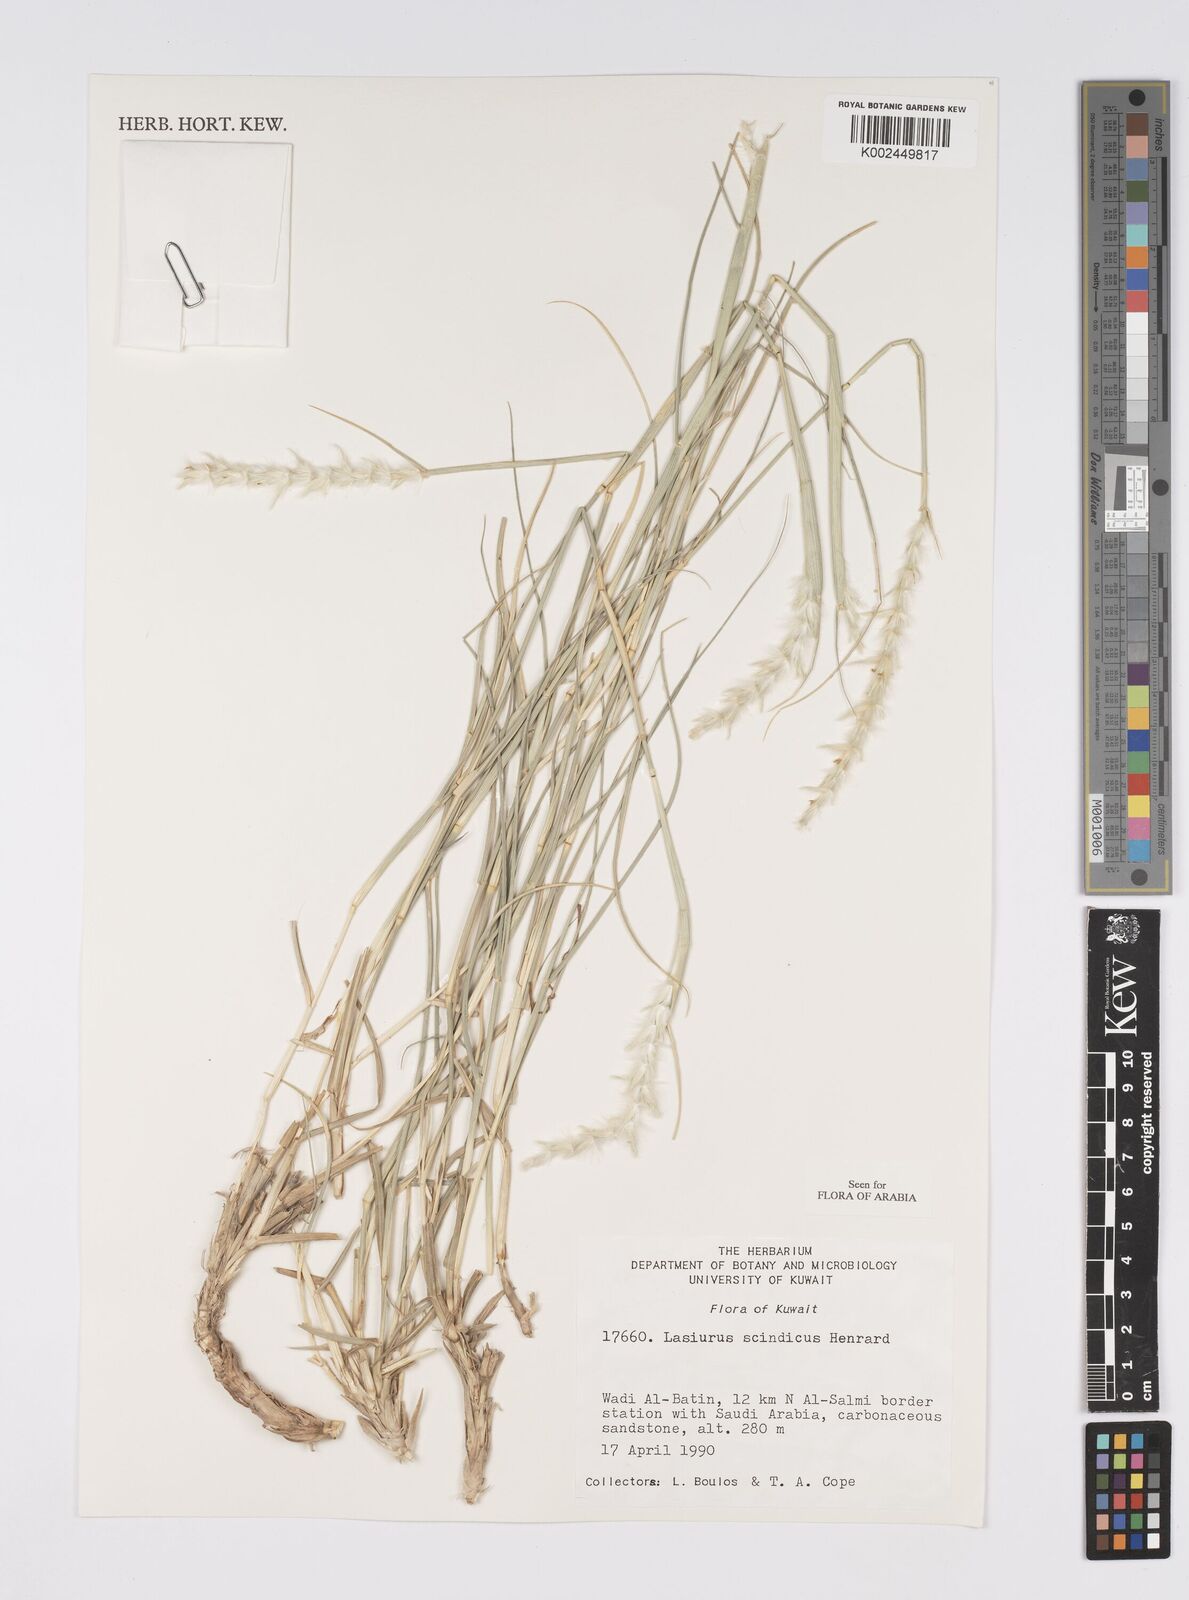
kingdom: Plantae
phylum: Tracheophyta
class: Liliopsida
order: Poales
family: Poaceae
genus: Lasiurus
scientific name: Lasiurus scindicus
